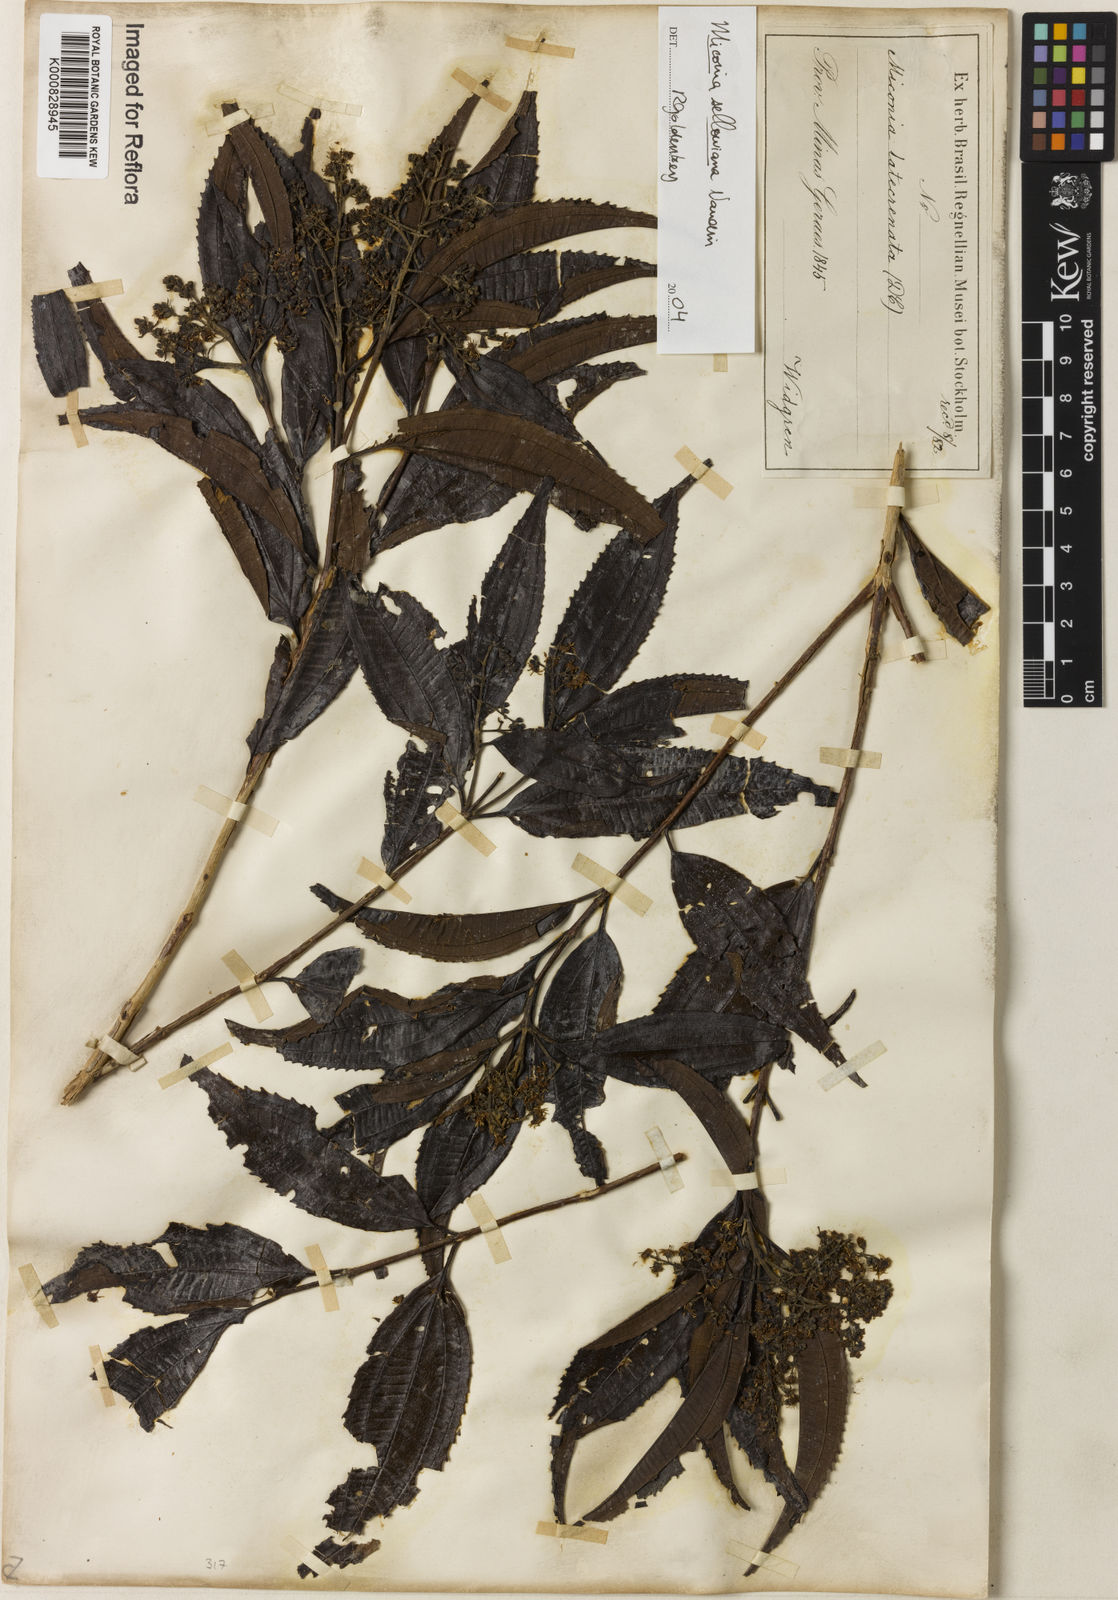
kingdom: Plantae
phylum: Tracheophyta
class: Magnoliopsida
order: Myrtales
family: Melastomataceae
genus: Miconia
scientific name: Miconia sellowiana
